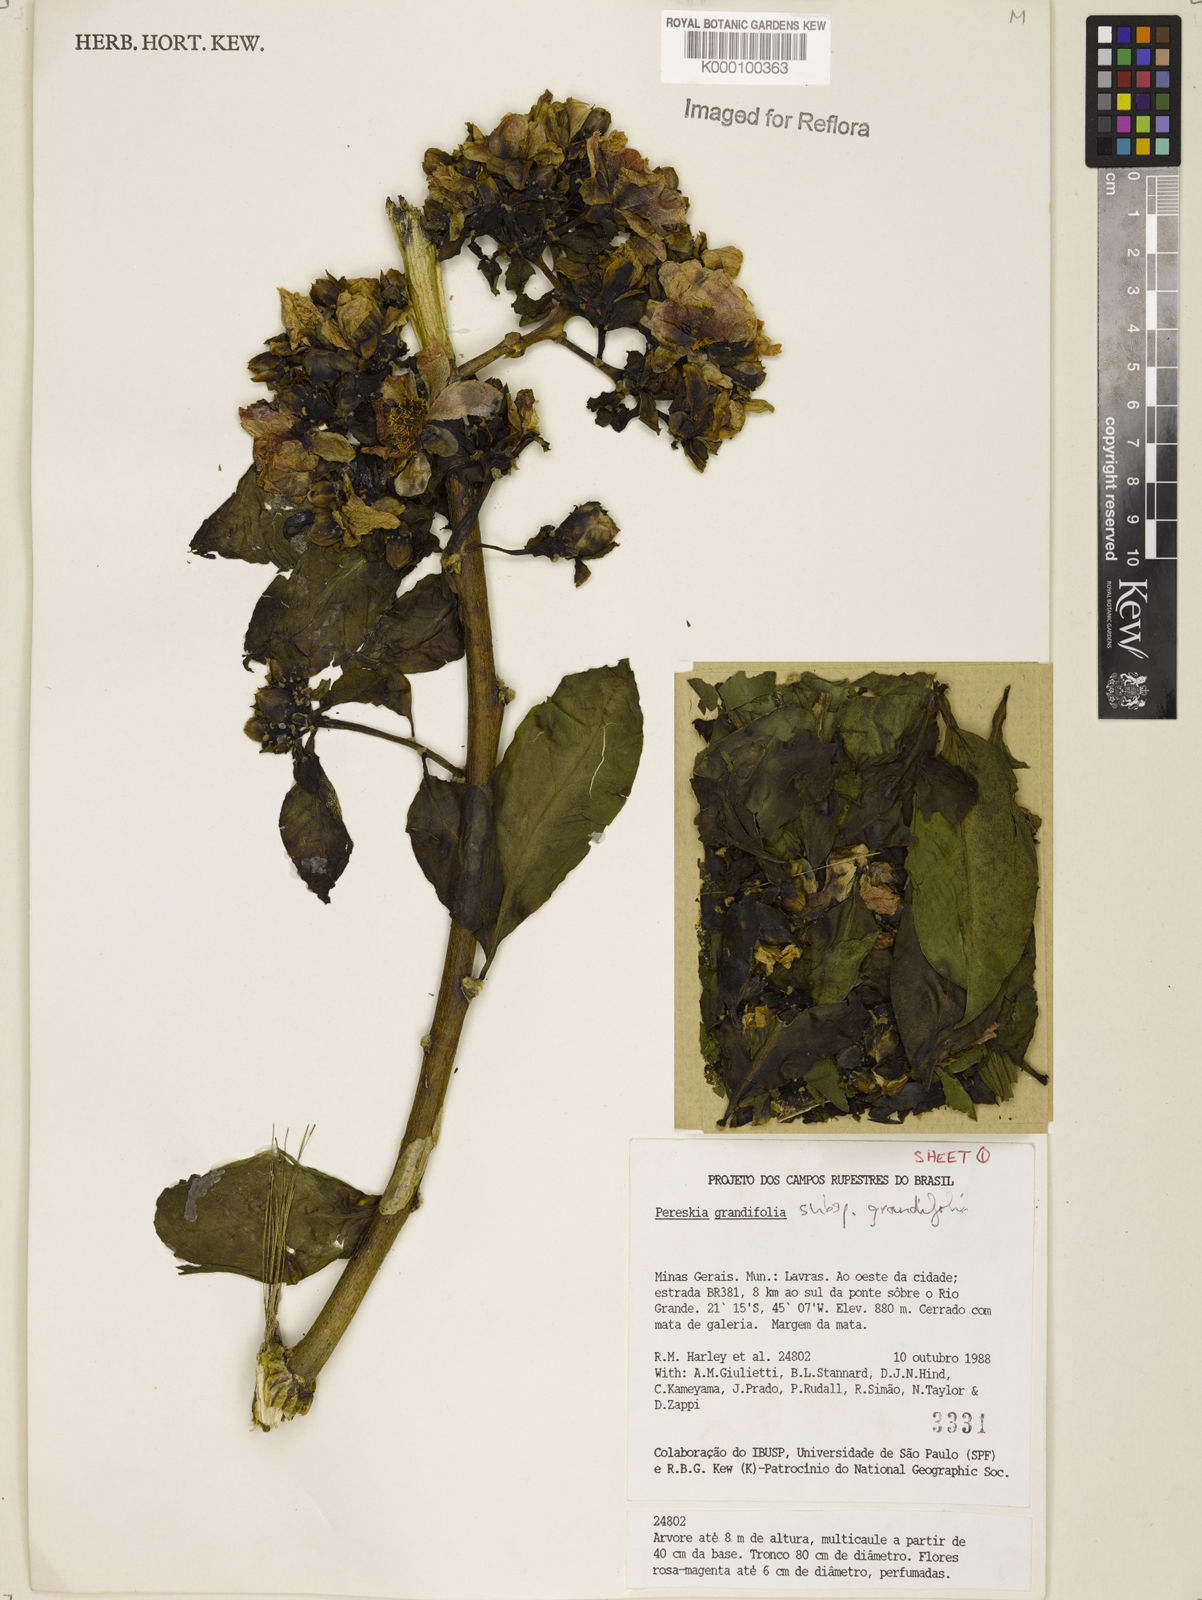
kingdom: Plantae
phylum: Tracheophyta
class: Magnoliopsida
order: Caryophyllales
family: Cactaceae
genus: Pereskia
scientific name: Pereskia grandifolia
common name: Rose cactus
